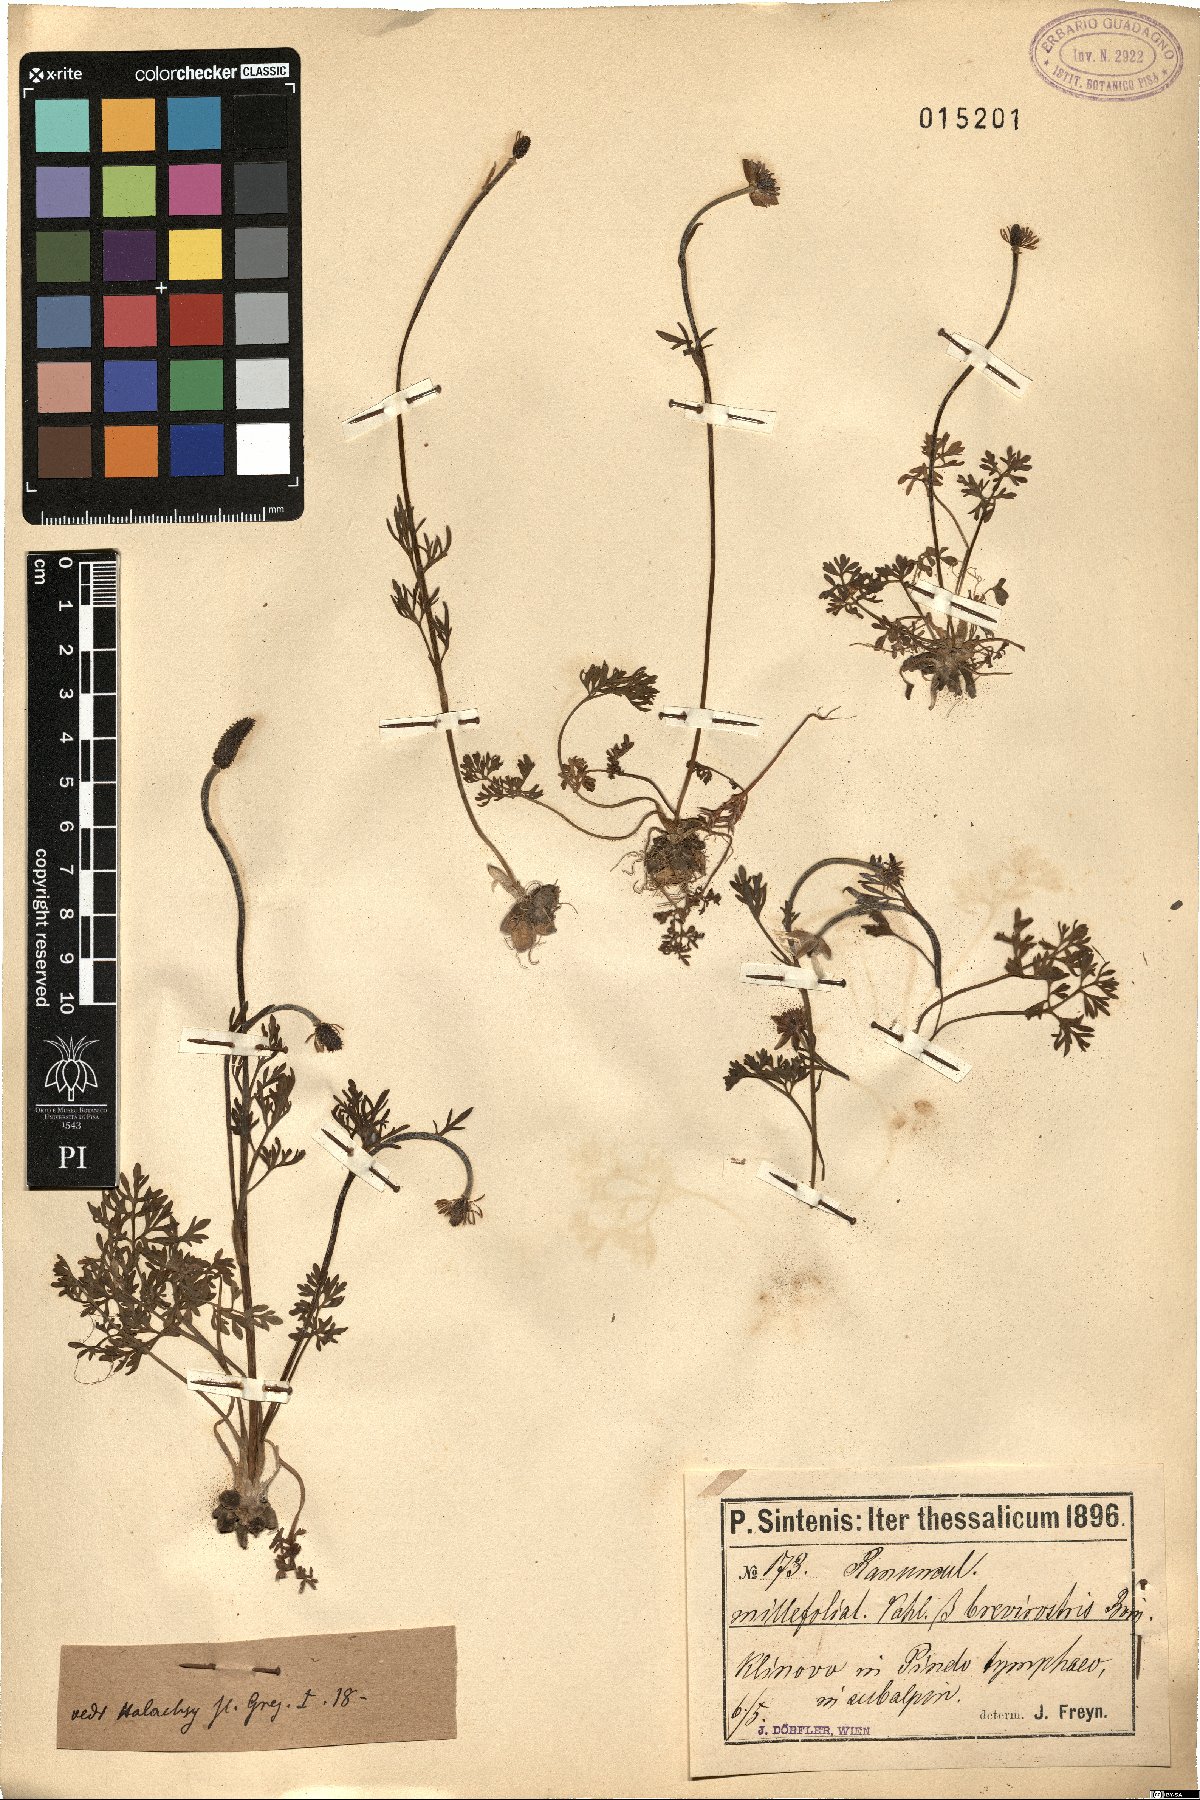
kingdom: Plantae
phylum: Tracheophyta
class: Magnoliopsida
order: Ranunculales
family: Ranunculaceae
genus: Ranunculus
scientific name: Ranunculus millefoliatus
